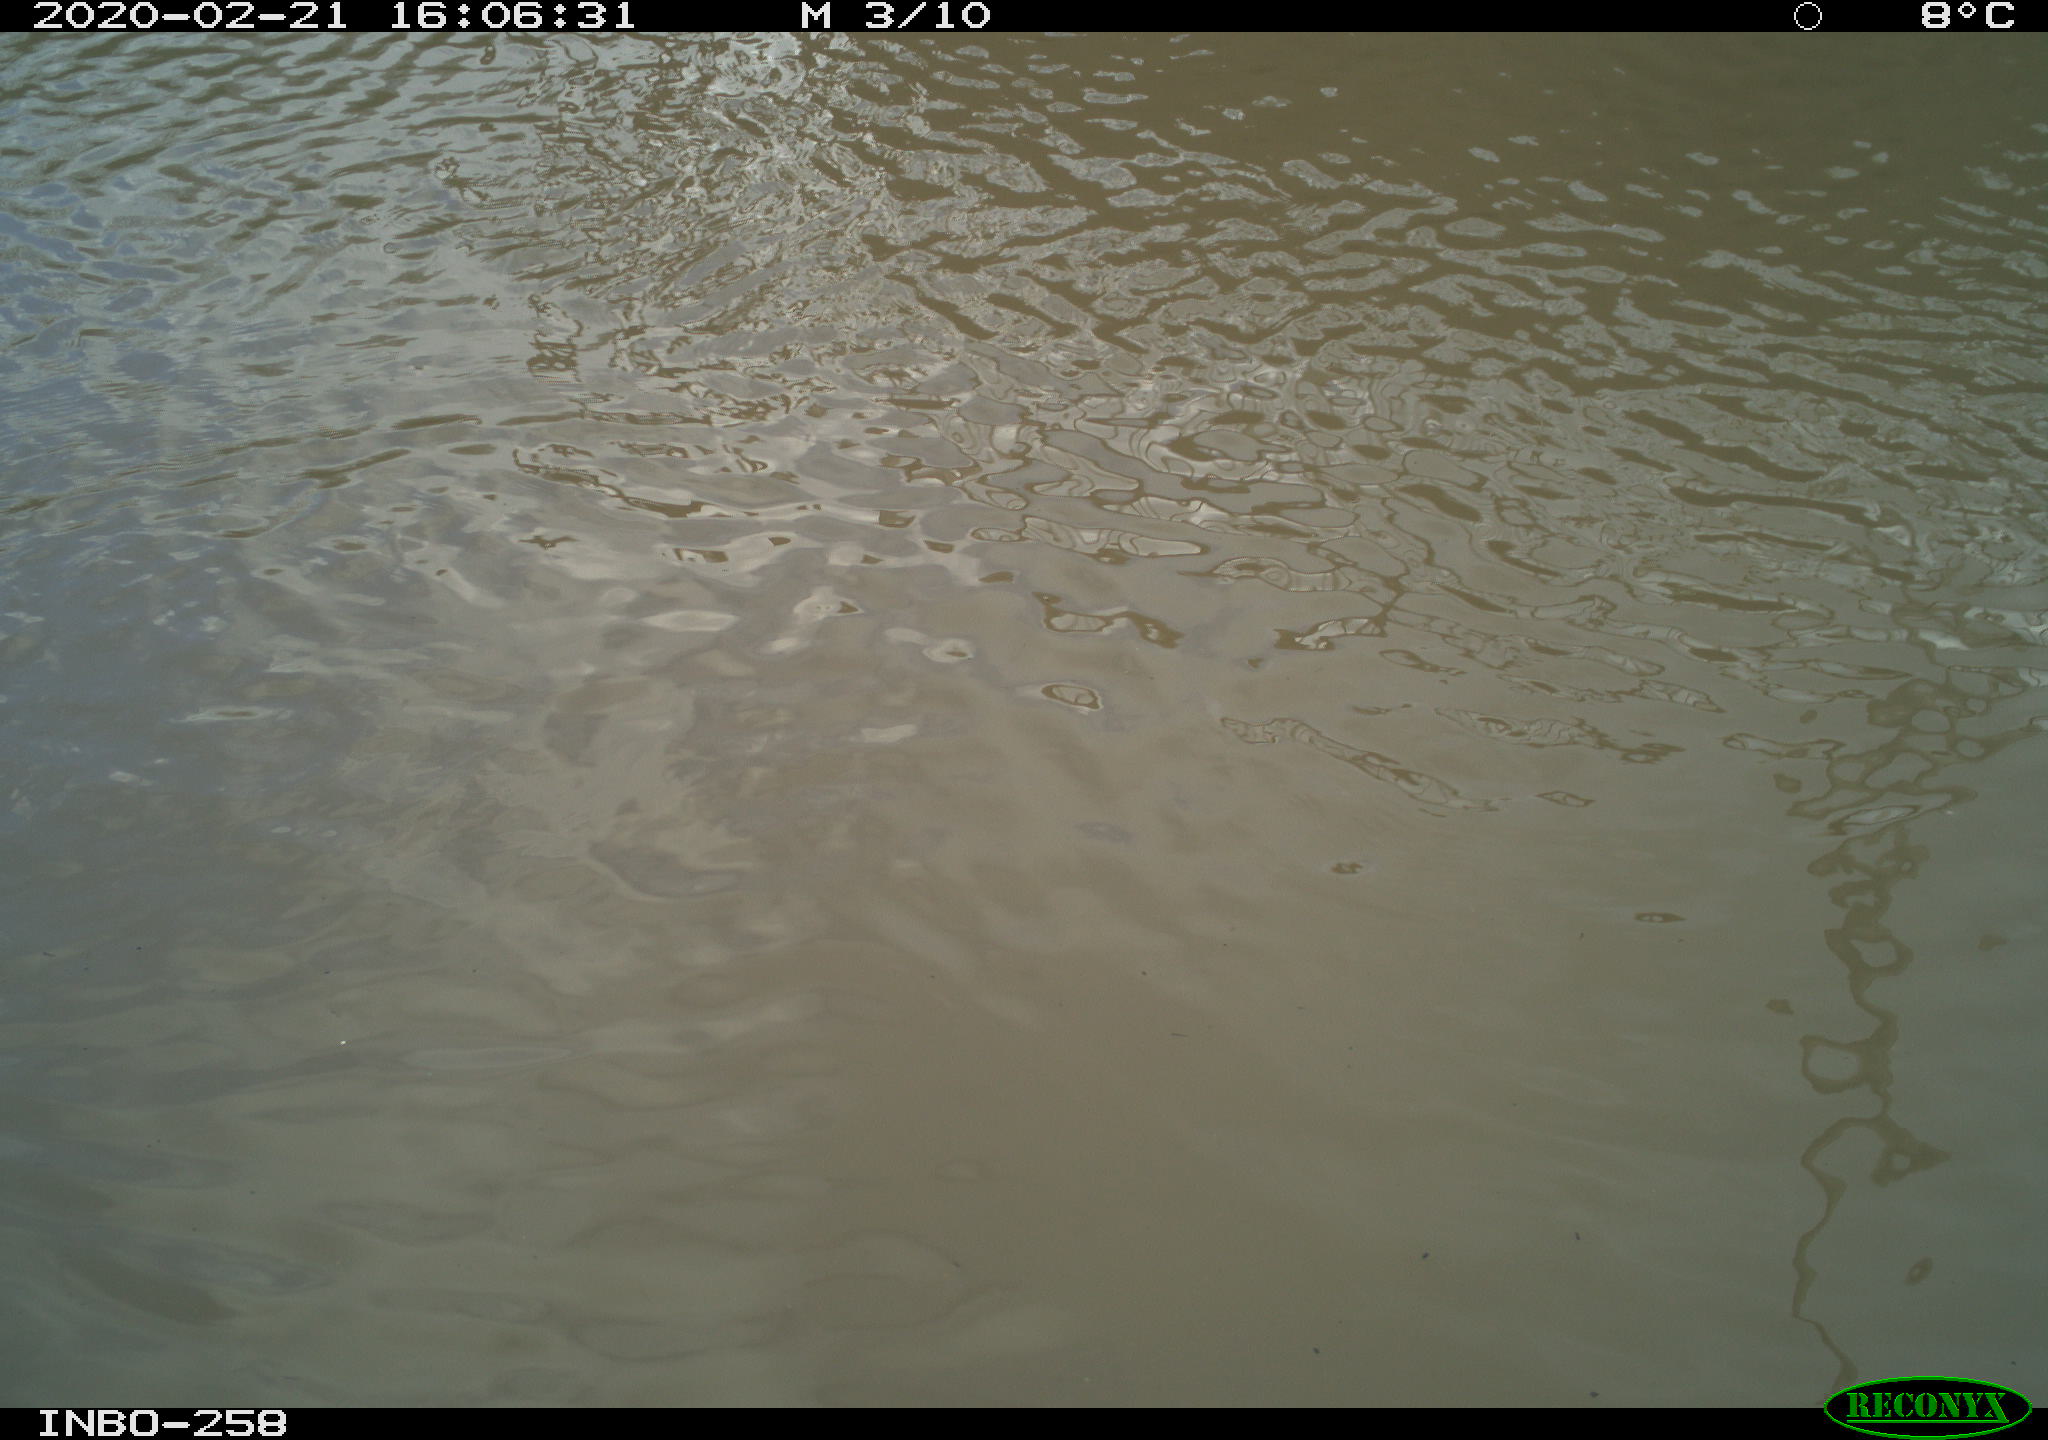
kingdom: Animalia
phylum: Chordata
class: Aves
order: Gruiformes
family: Rallidae
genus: Gallinula
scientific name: Gallinula chloropus
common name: Common moorhen
